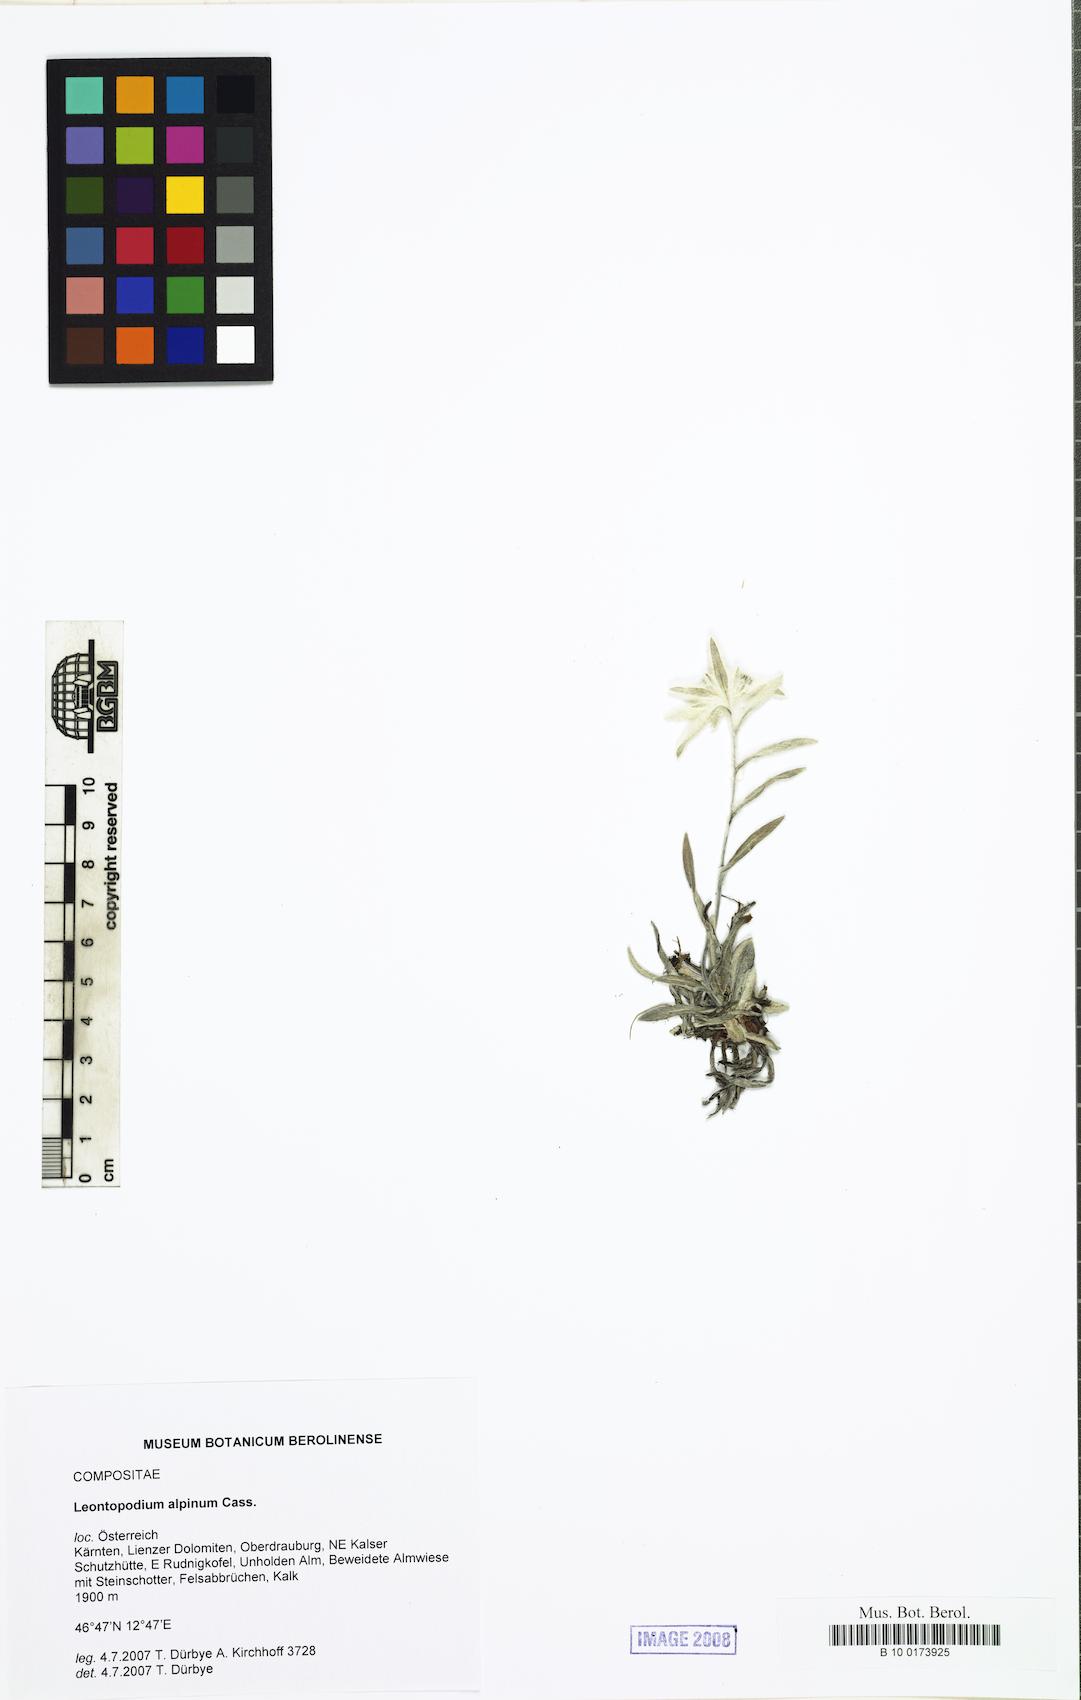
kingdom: Plantae
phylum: Tracheophyta
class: Magnoliopsida
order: Asterales
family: Asteraceae
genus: Leontopodium
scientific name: Leontopodium nivale
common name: Edelweiss
